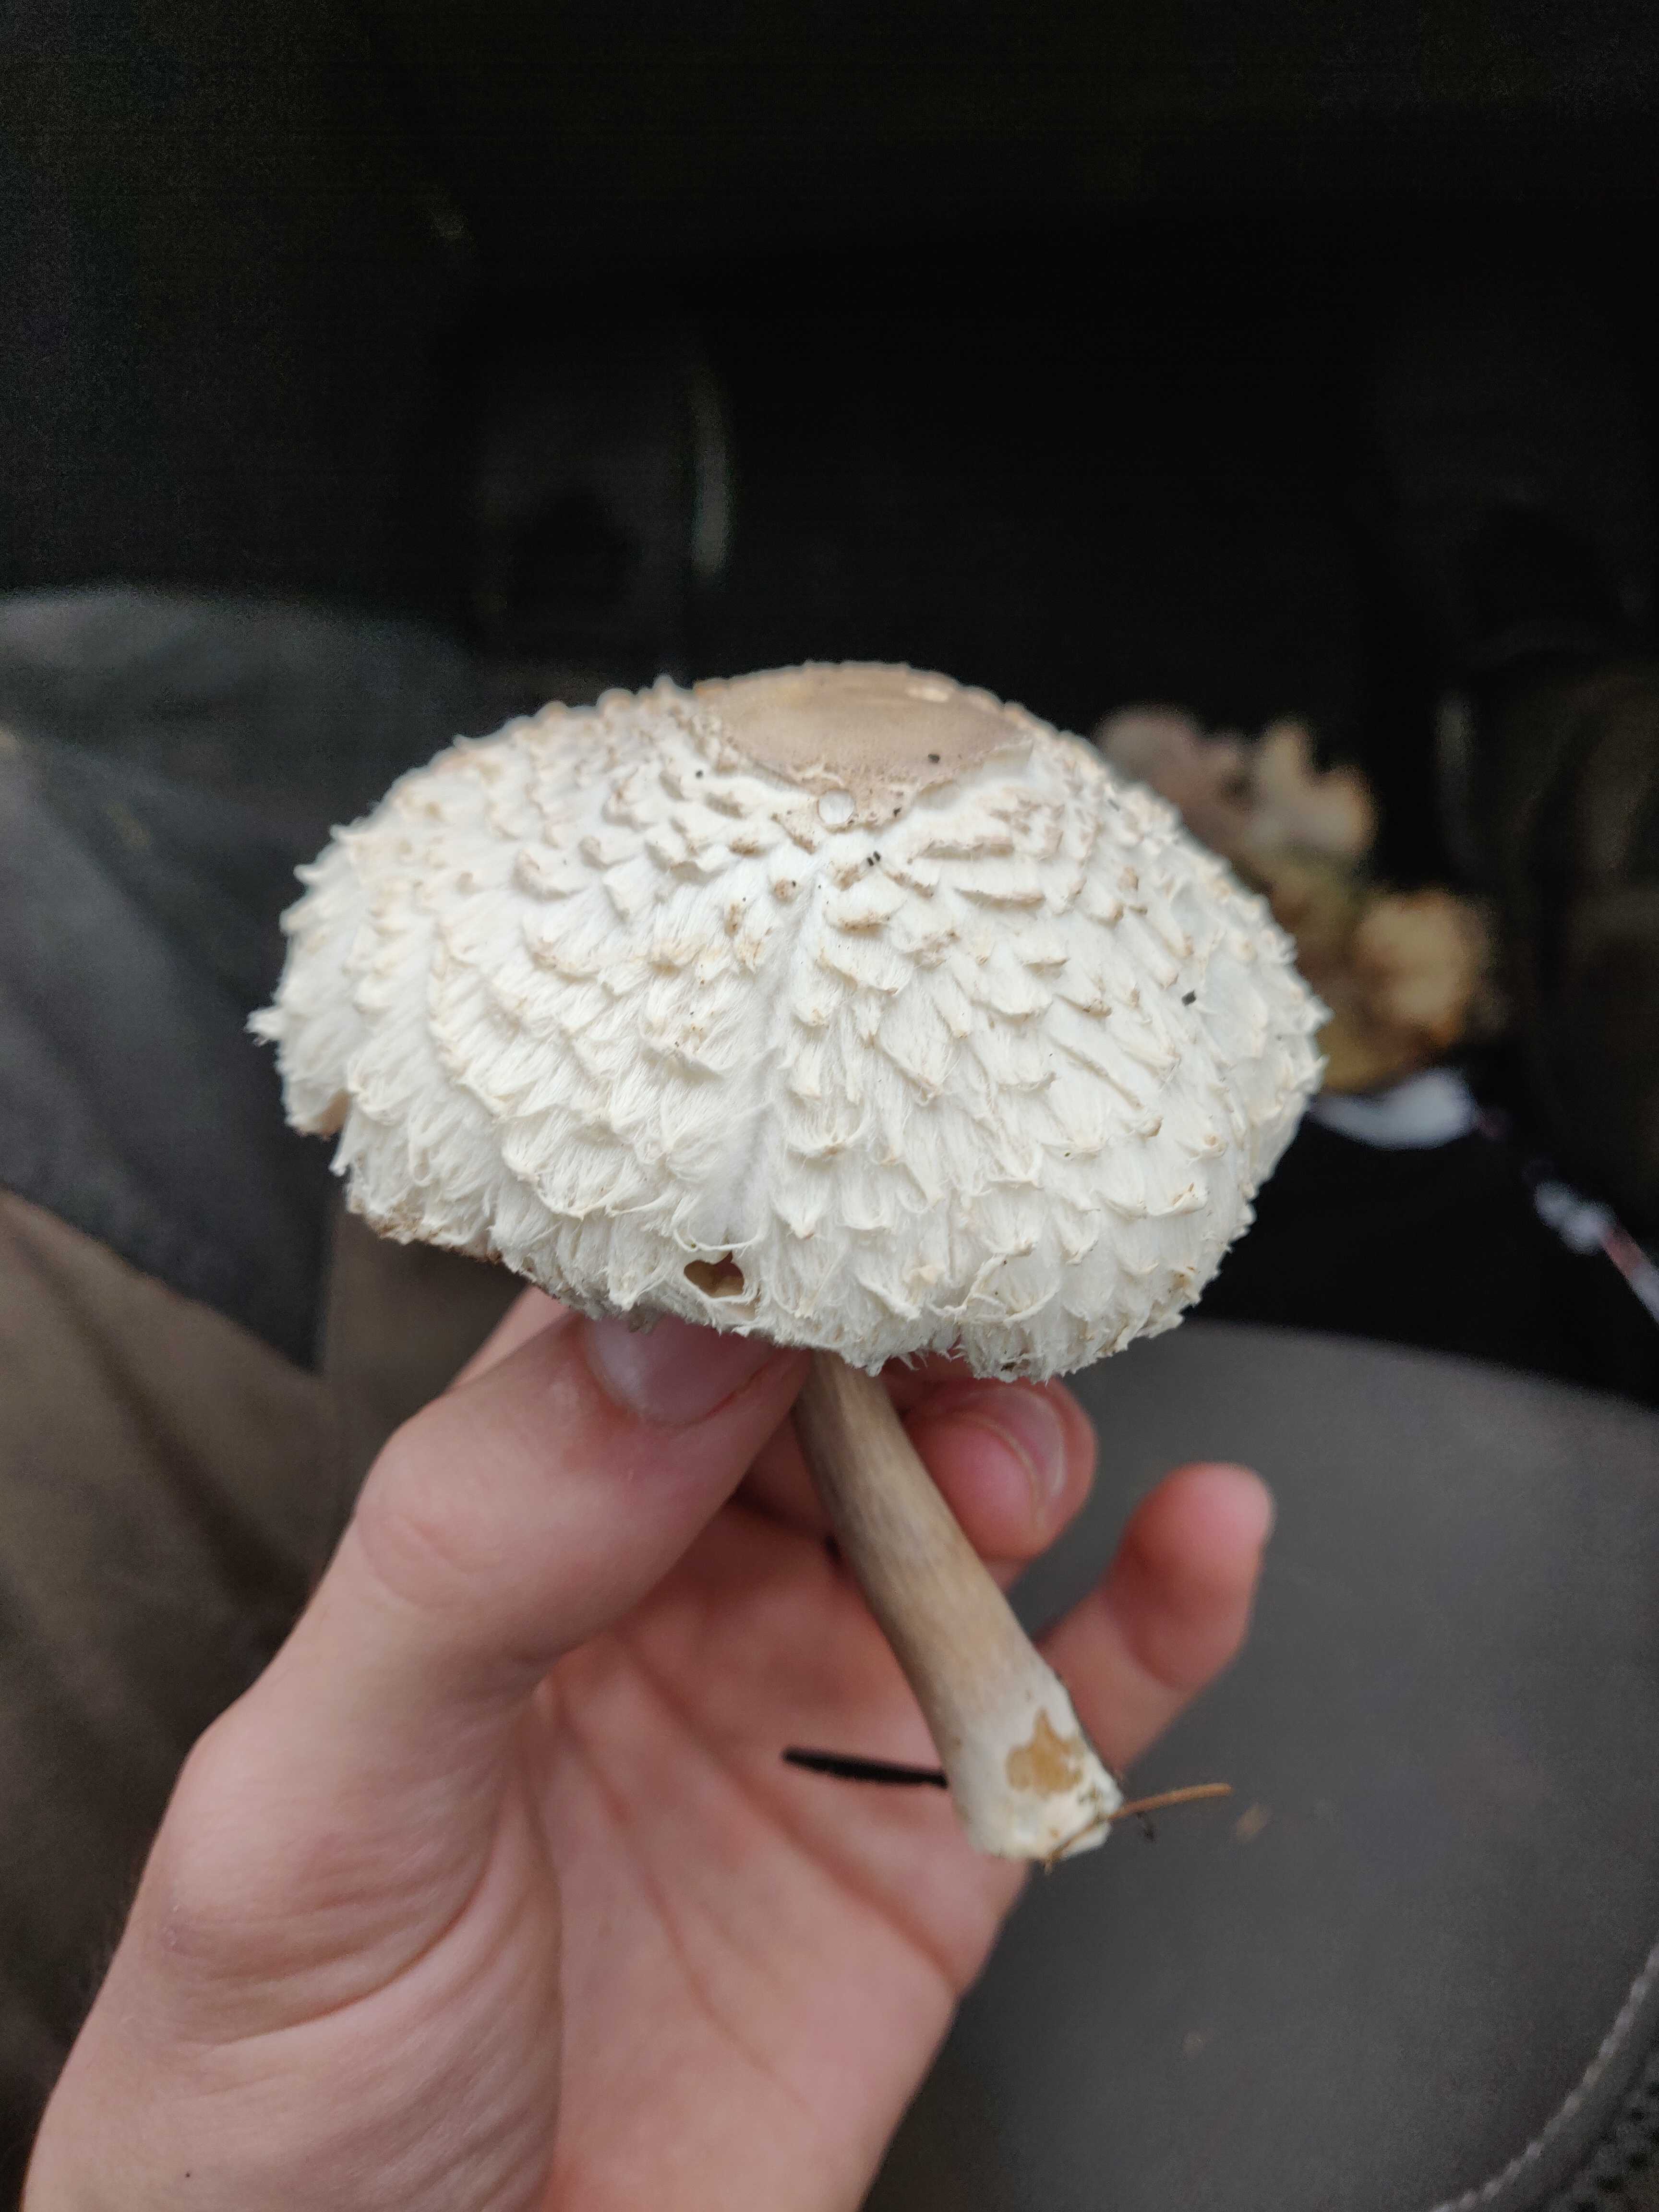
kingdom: Fungi
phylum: Basidiomycota
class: Agaricomycetes
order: Agaricales
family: Agaricaceae
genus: Leucoagaricus
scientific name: Leucoagaricus nympharum
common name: gran-silkehat
